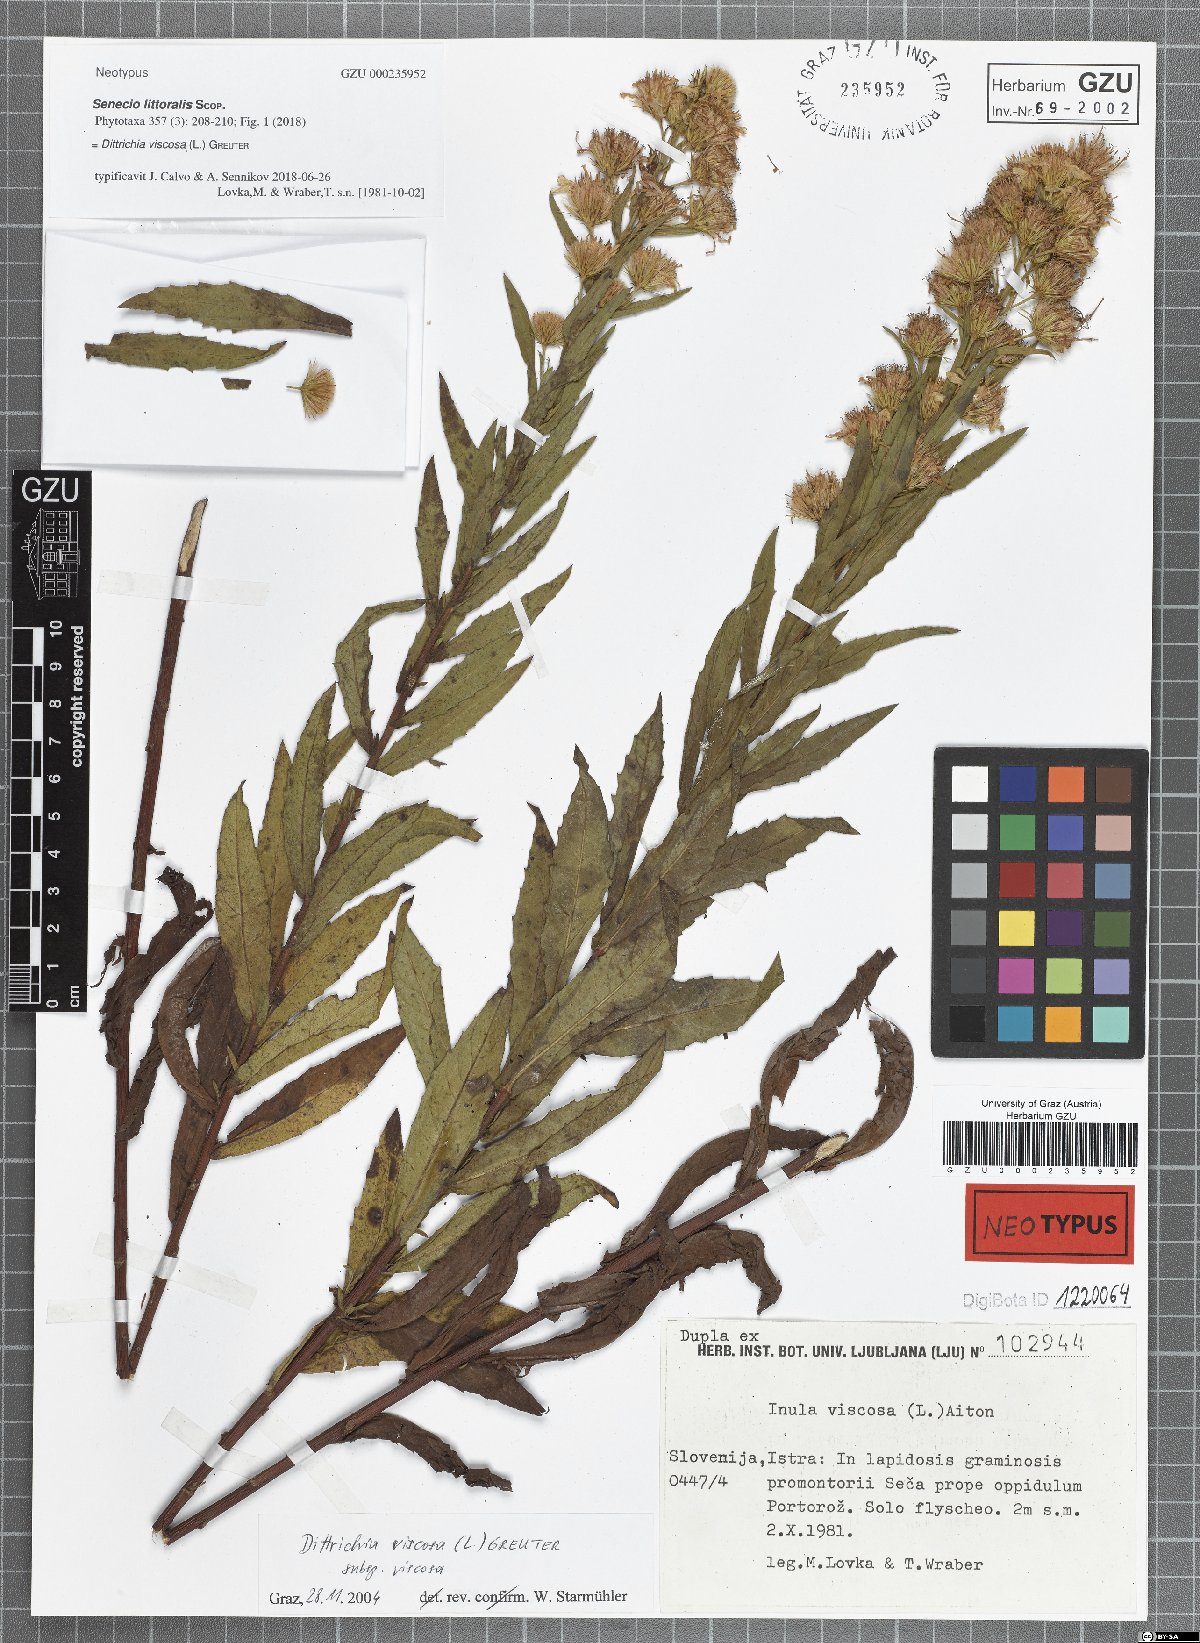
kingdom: Plantae
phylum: Tracheophyta
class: Magnoliopsida
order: Asterales
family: Asteraceae
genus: Dittrichia
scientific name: Dittrichia viscosa
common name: Woody fleabane
